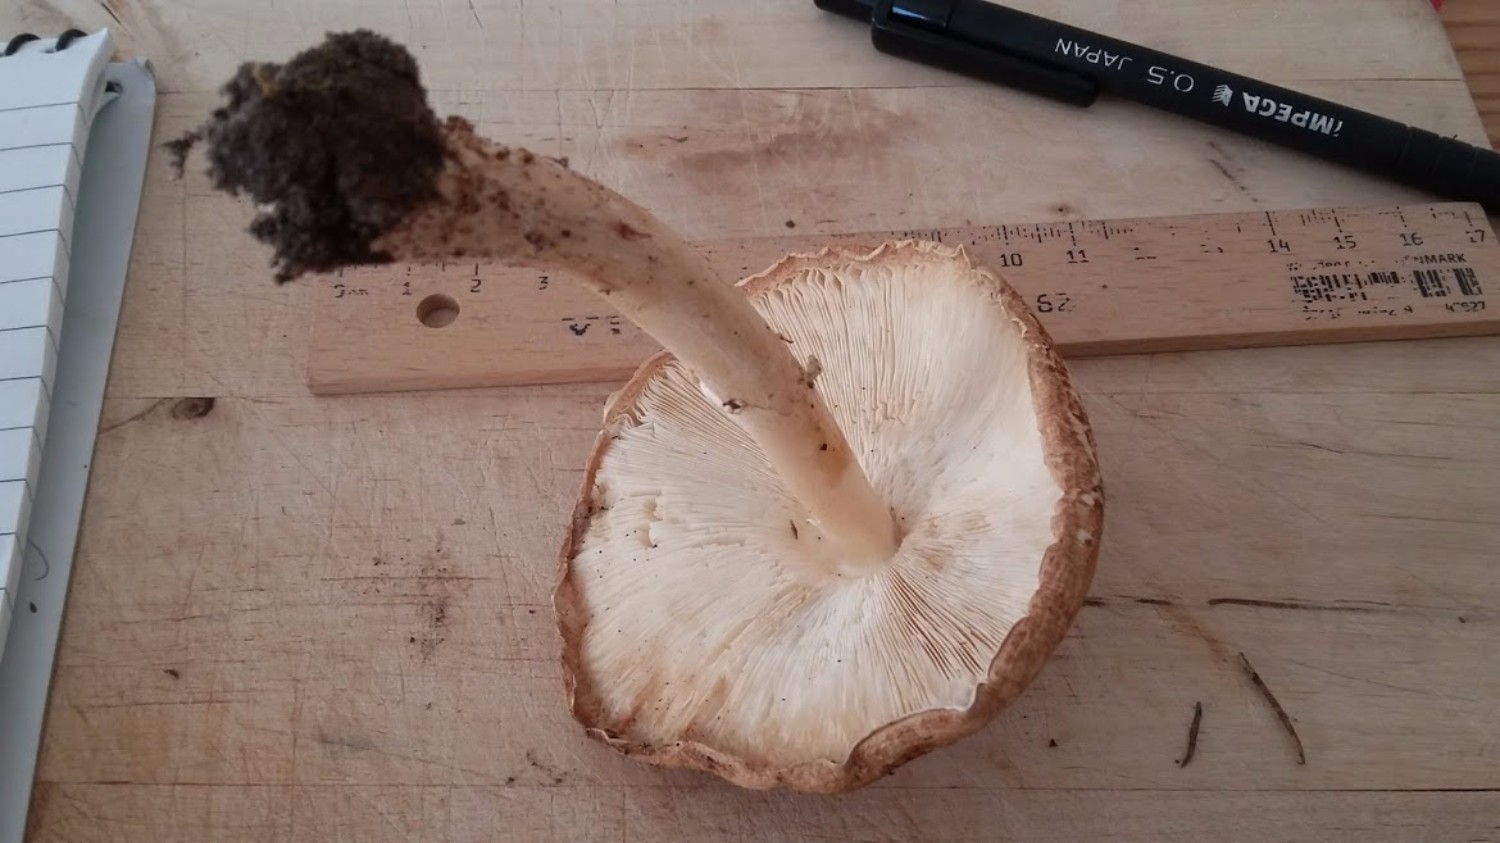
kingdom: Fungi
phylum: Basidiomycota
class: Agaricomycetes
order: Agaricales
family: Agaricaceae
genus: Echinoderma
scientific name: Echinoderma asperum
